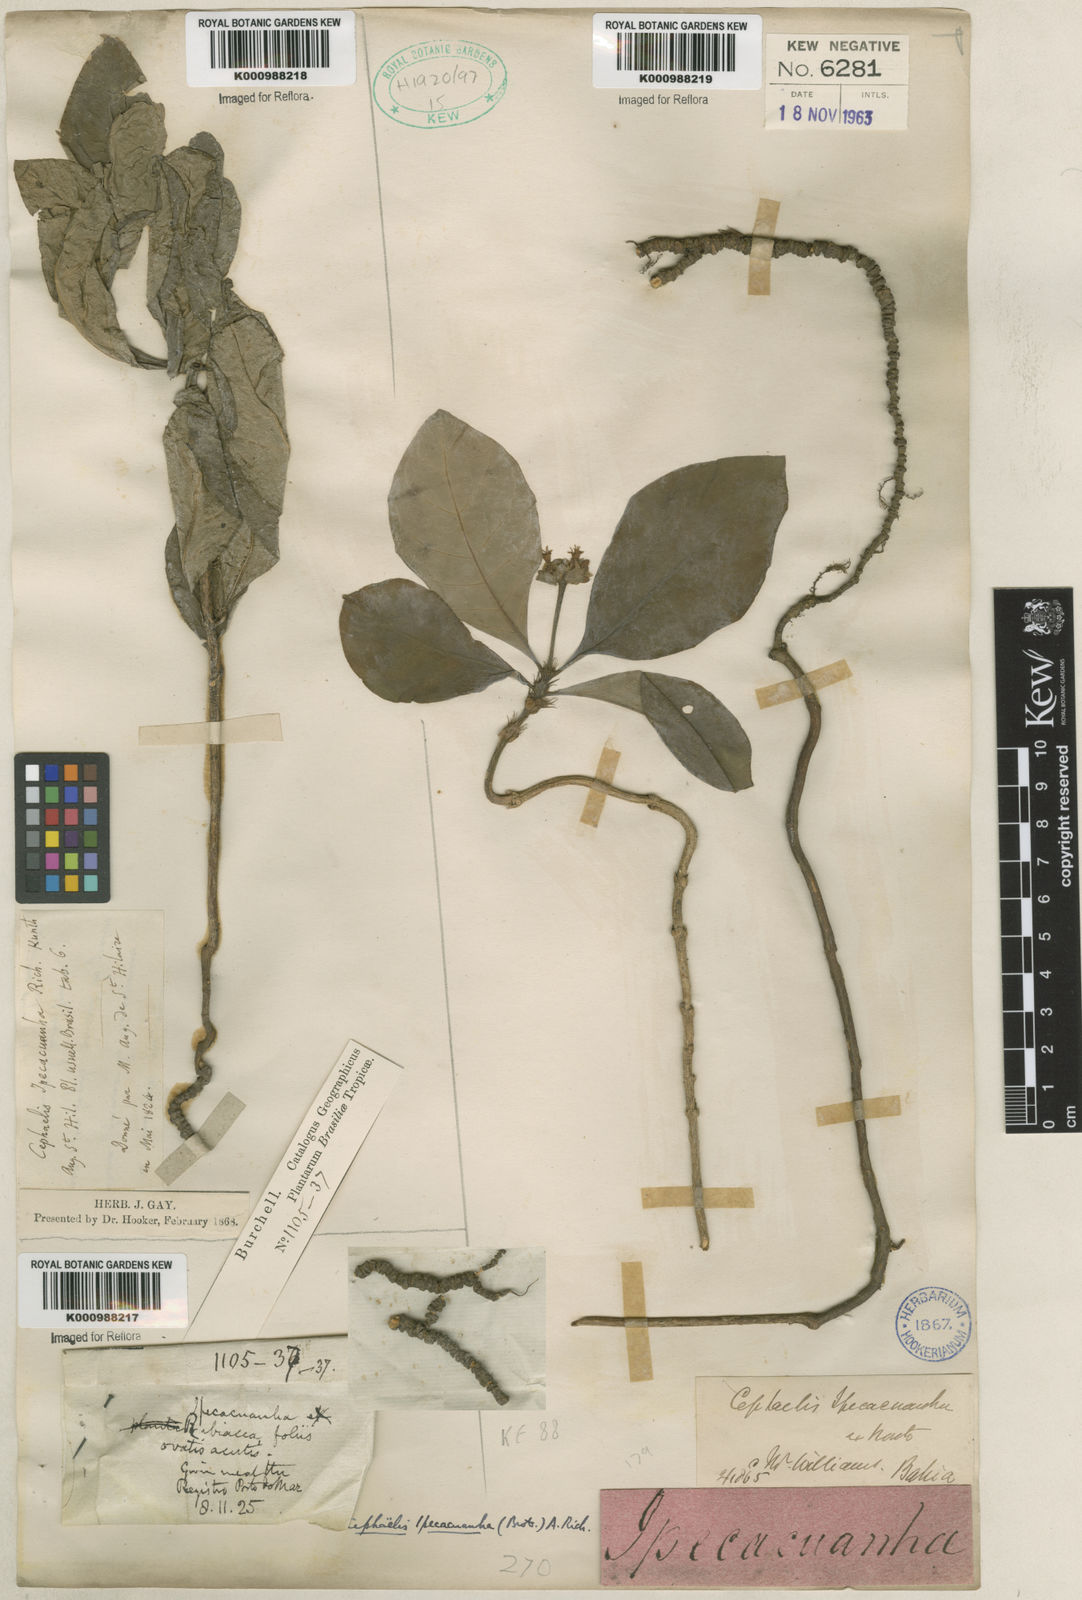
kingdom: Plantae
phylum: Tracheophyta
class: Magnoliopsida
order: Gentianales
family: Rubiaceae
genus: Carapichea
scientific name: Carapichea ipecacuanha
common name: Ipecac
